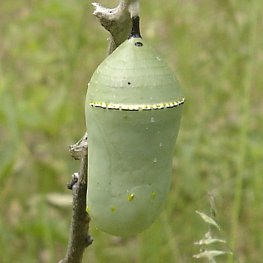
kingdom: Animalia
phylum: Arthropoda
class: Insecta
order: Lepidoptera
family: Nymphalidae
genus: Danaus
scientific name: Danaus plexippus
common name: Monarch
